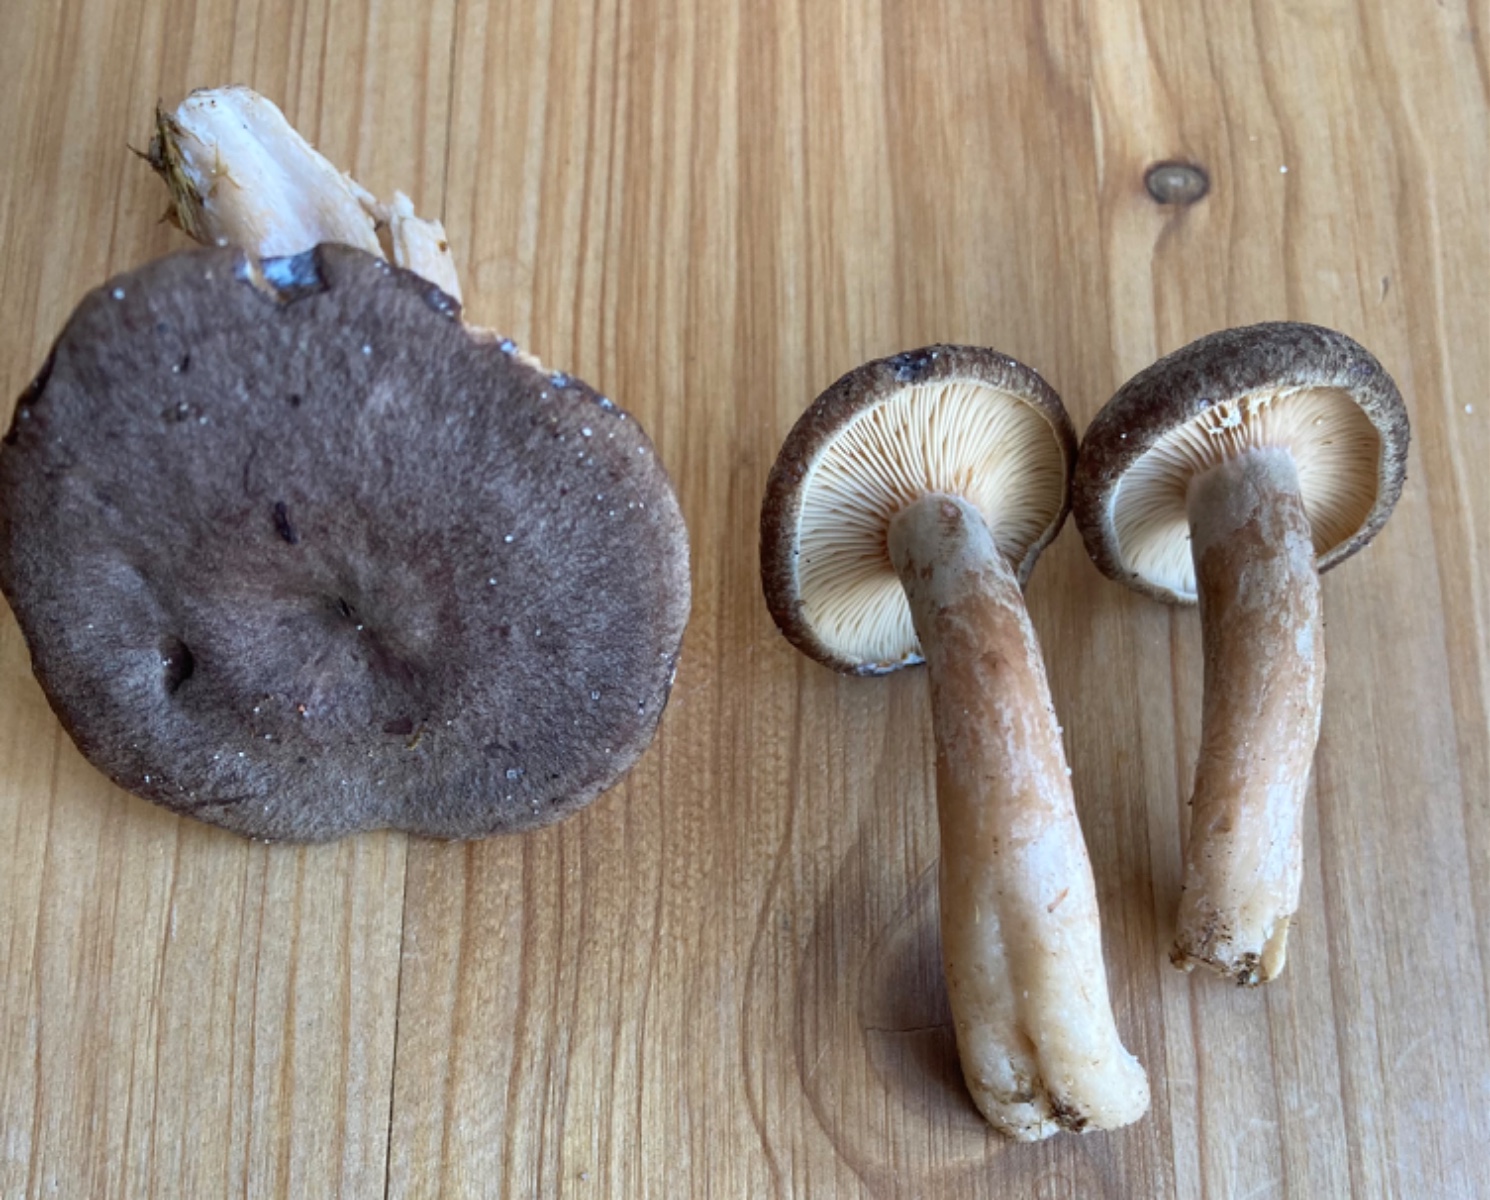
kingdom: Fungi
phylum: Basidiomycota
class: Agaricomycetes
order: Russulales
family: Russulaceae
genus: Lactarius
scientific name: Lactarius mammosus
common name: kokosbrun mælkehat
